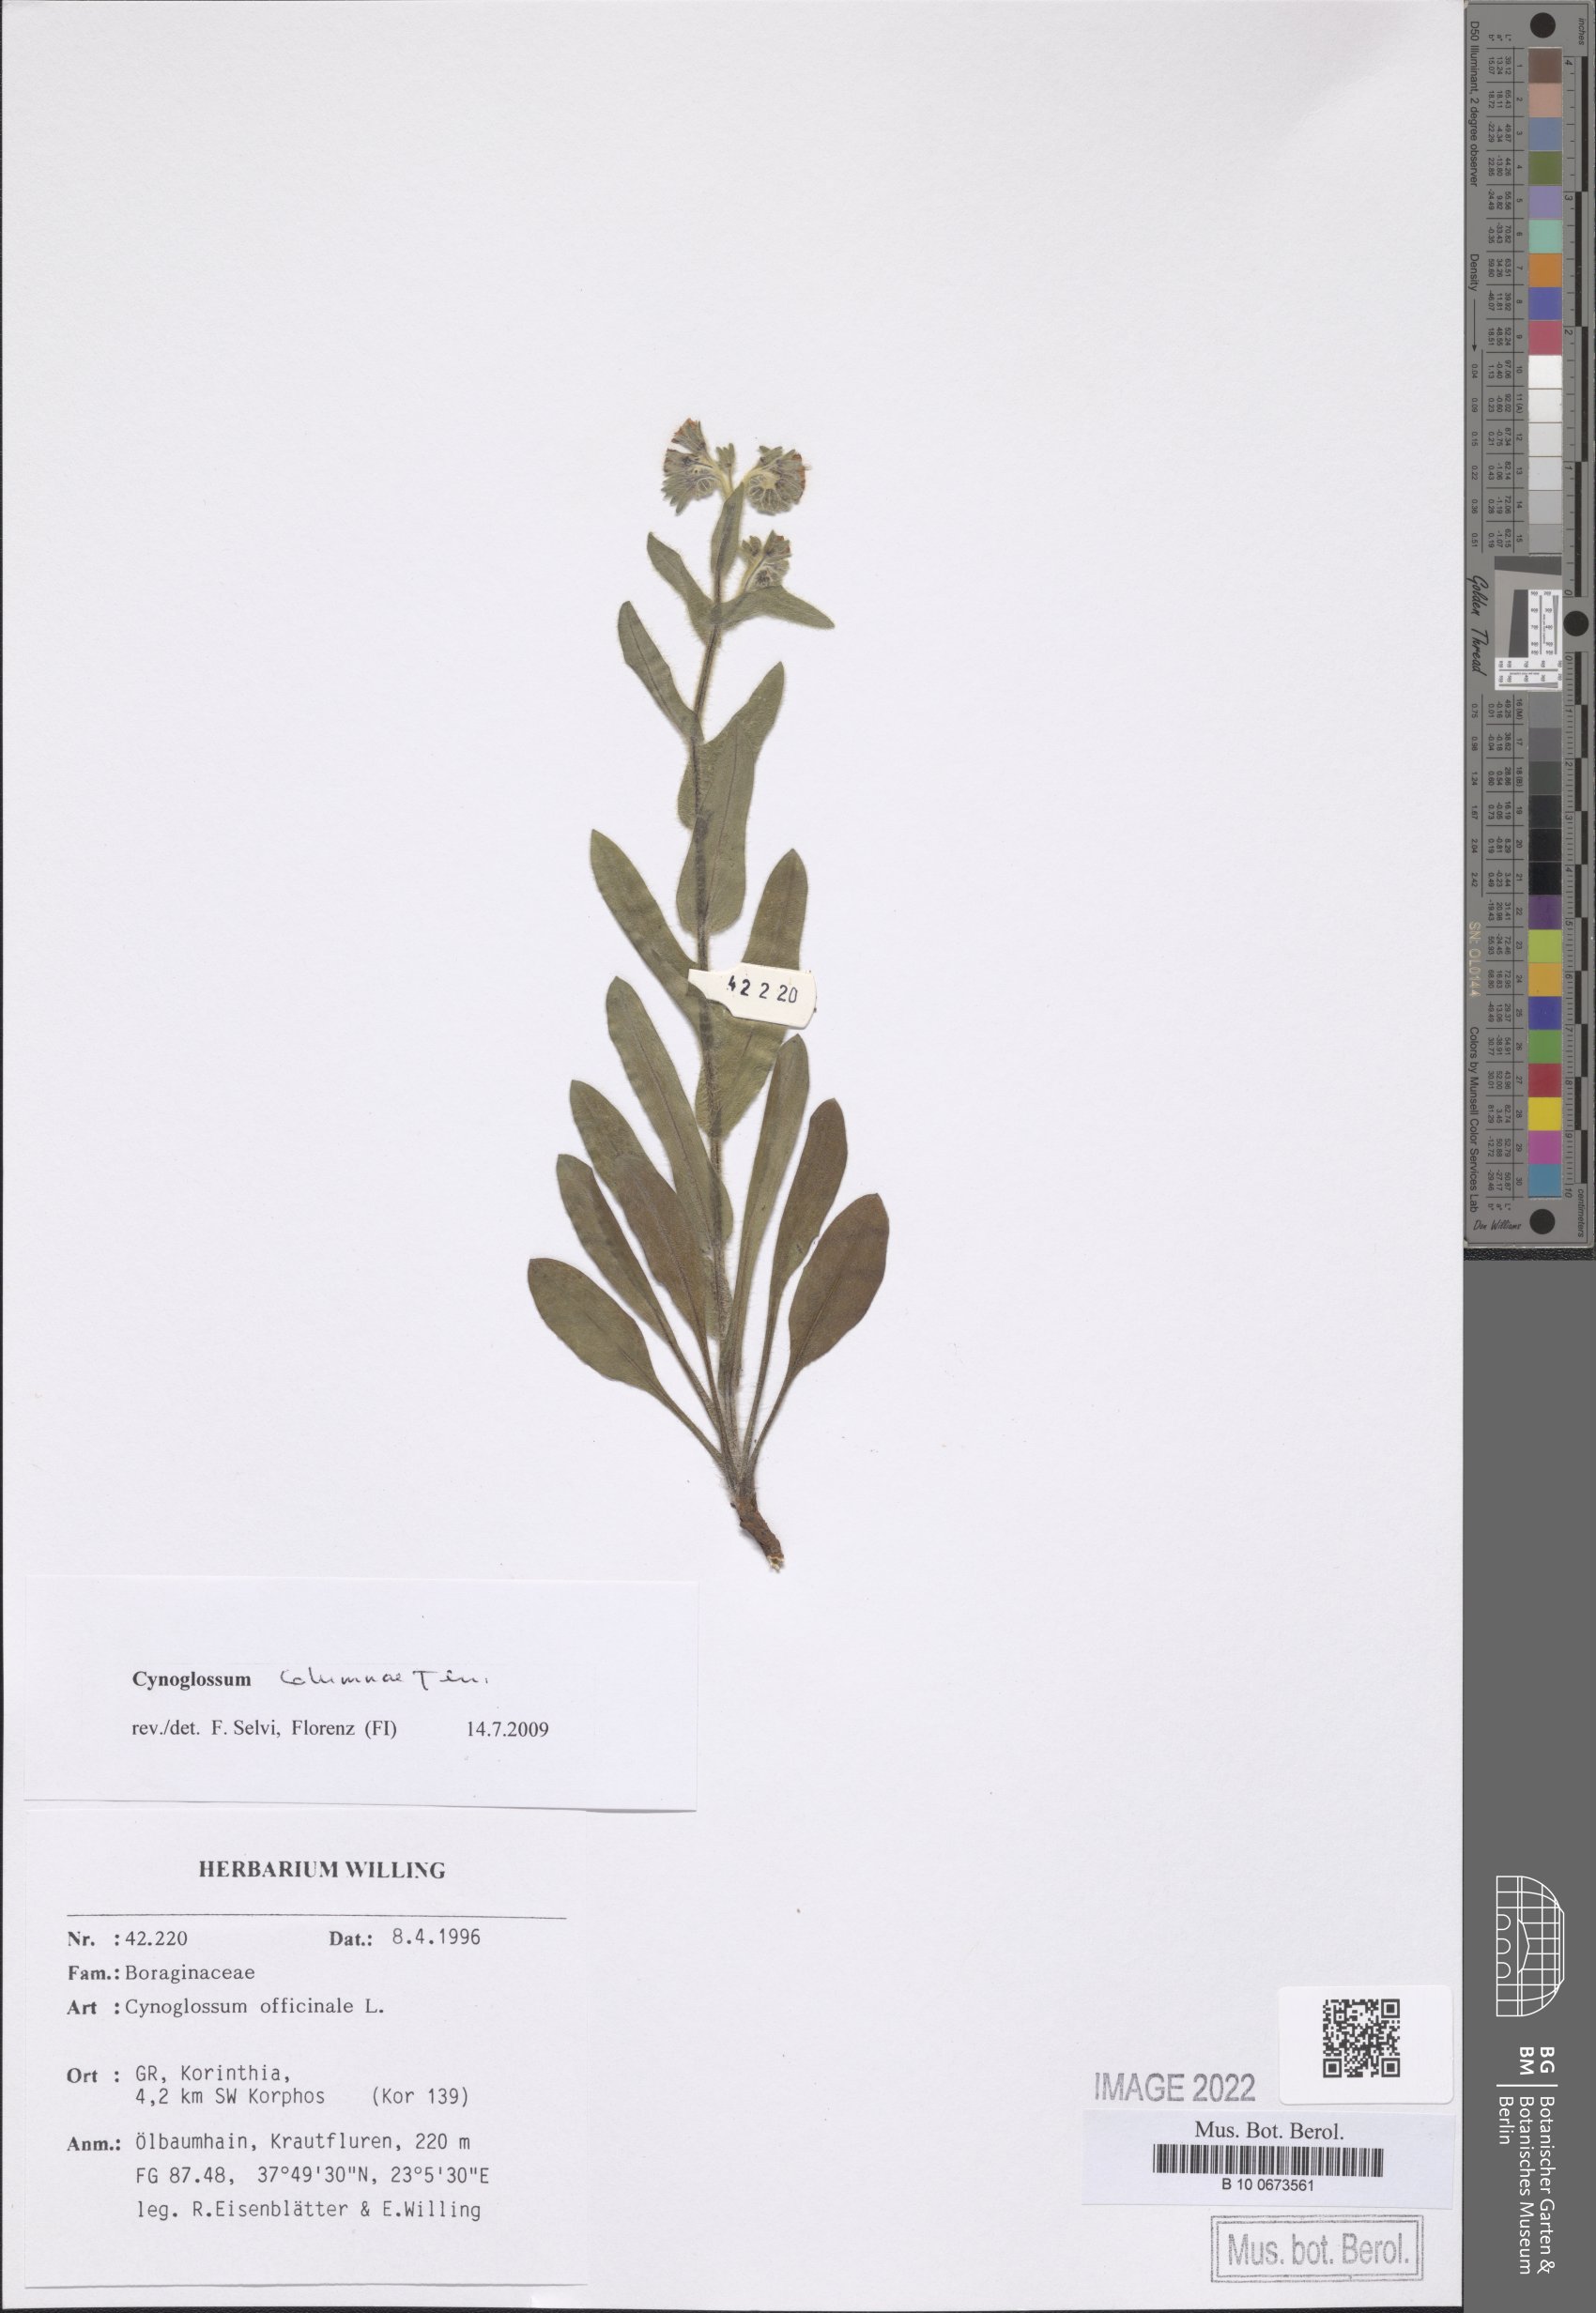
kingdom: Plantae
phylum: Tracheophyta
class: Magnoliopsida
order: Boraginales
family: Boraginaceae
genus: Rindera
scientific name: Rindera columnae
